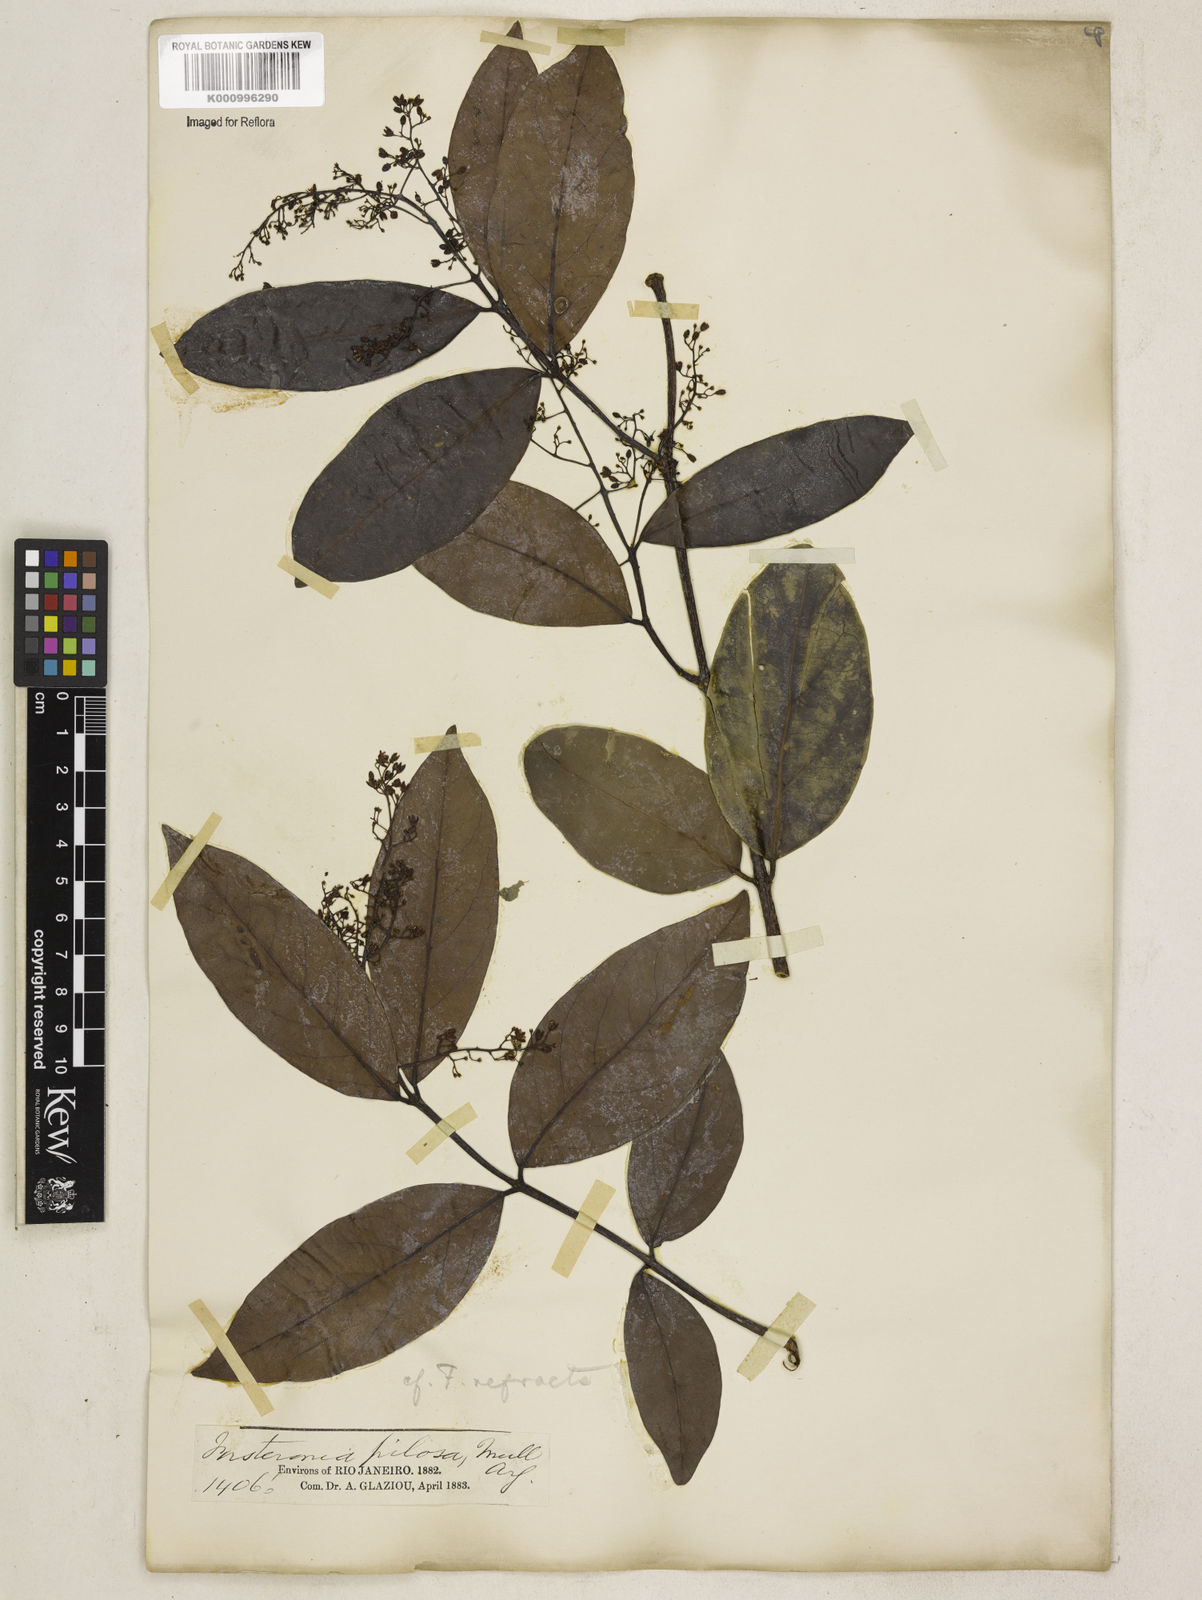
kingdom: Plantae
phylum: Tracheophyta
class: Magnoliopsida
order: Gentianales
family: Apocynaceae
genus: Forsteronia
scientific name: Forsteronia
